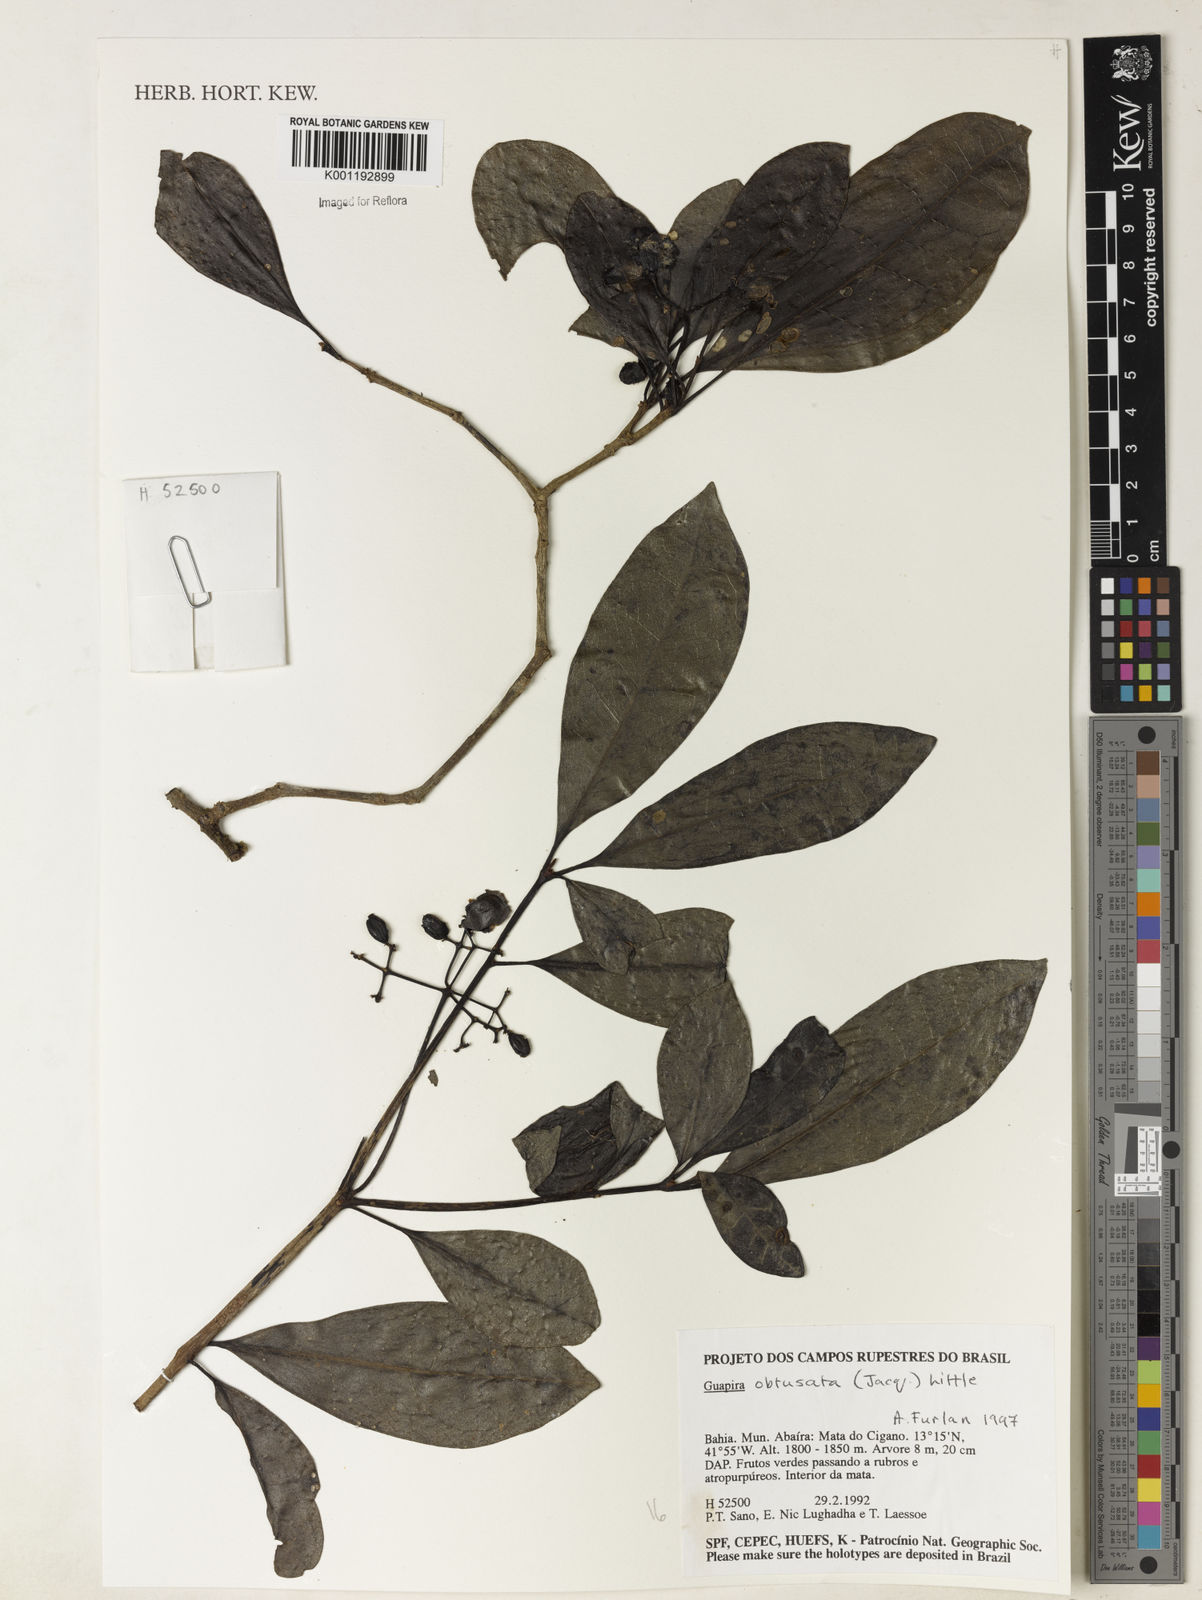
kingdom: Plantae
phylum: Tracheophyta
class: Magnoliopsida
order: Caryophyllales
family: Nyctaginaceae
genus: Guapira
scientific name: Guapira obtusata
